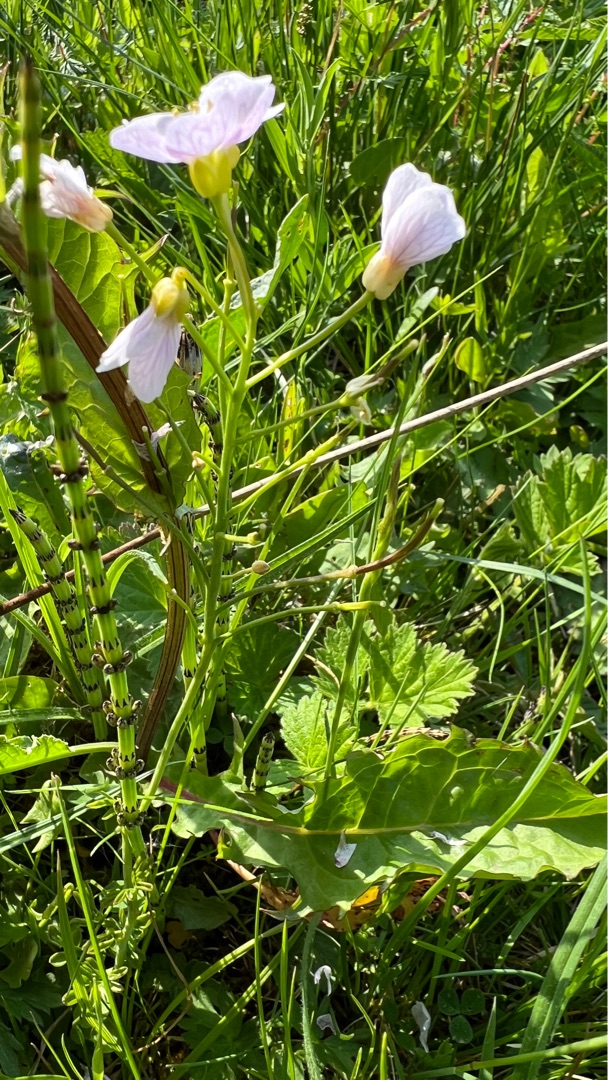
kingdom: Plantae
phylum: Tracheophyta
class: Magnoliopsida
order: Brassicales
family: Brassicaceae
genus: Cardamine
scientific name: Cardamine pratensis
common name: Engkarse
